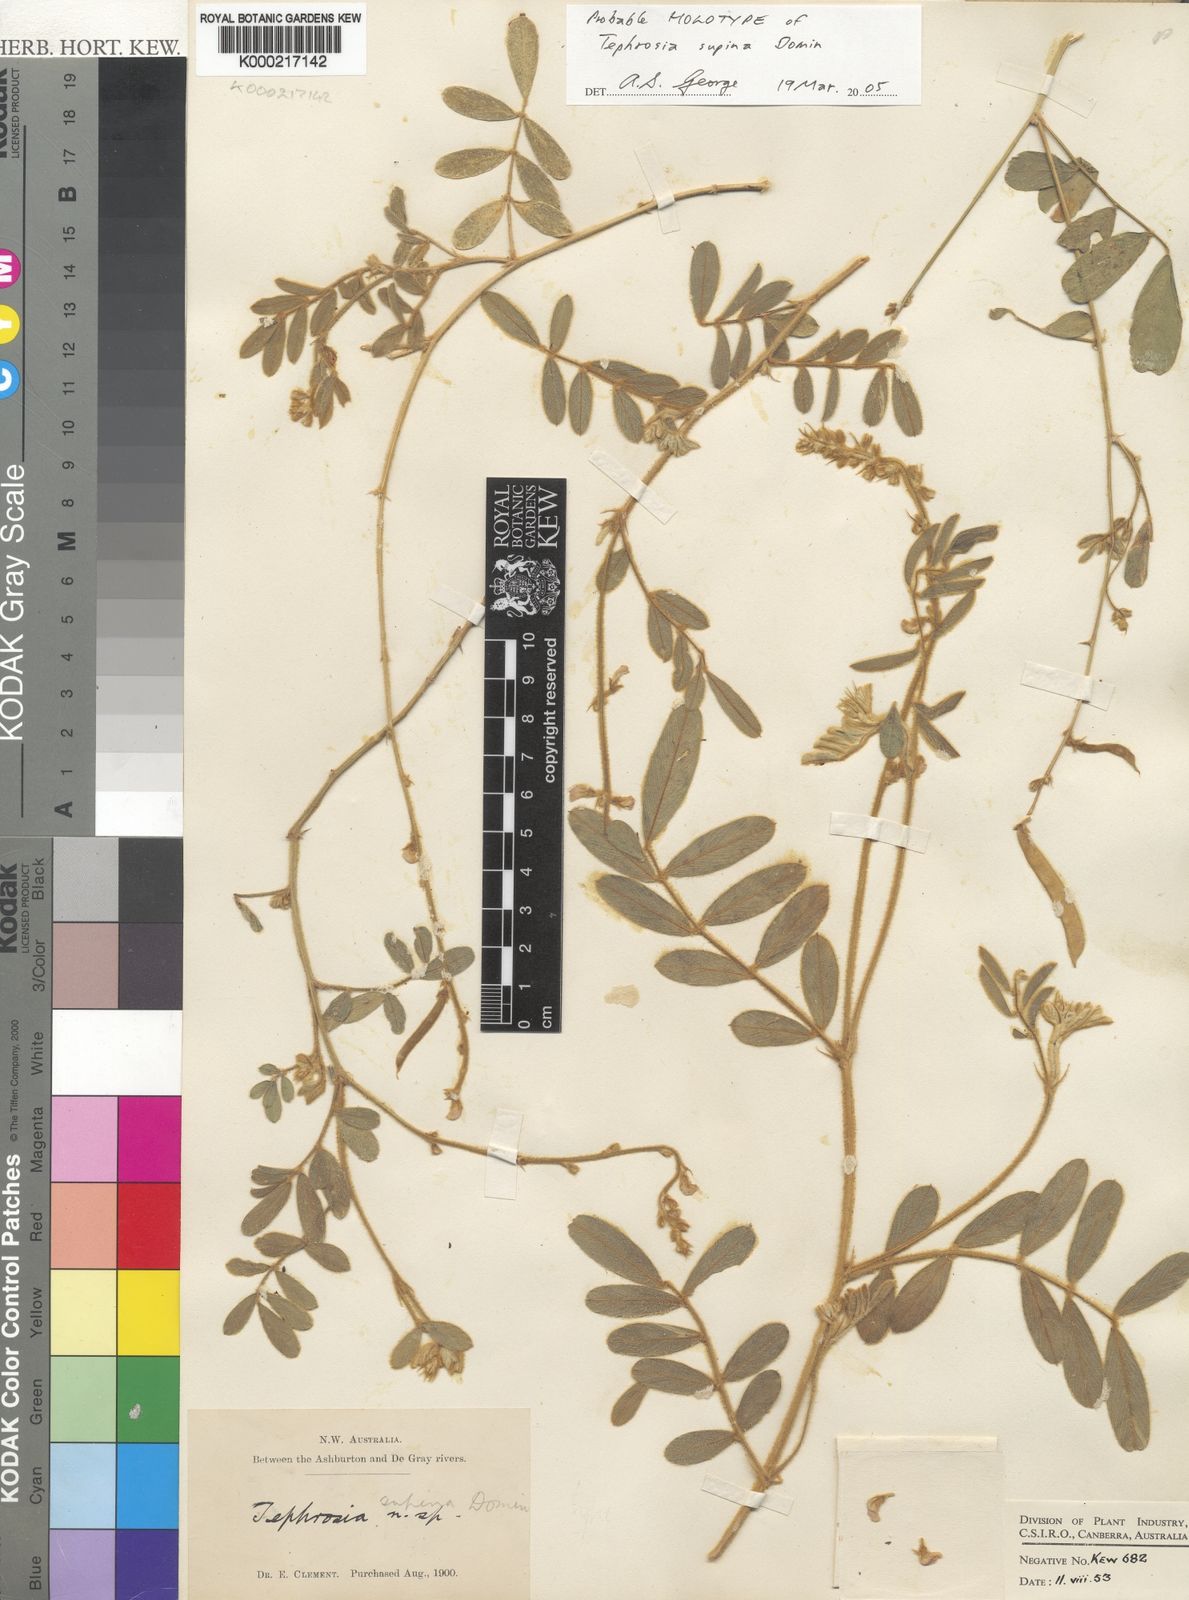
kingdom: Plantae
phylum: Tracheophyta
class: Magnoliopsida
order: Fabales
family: Fabaceae
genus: Tephrosia
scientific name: Tephrosia supina
